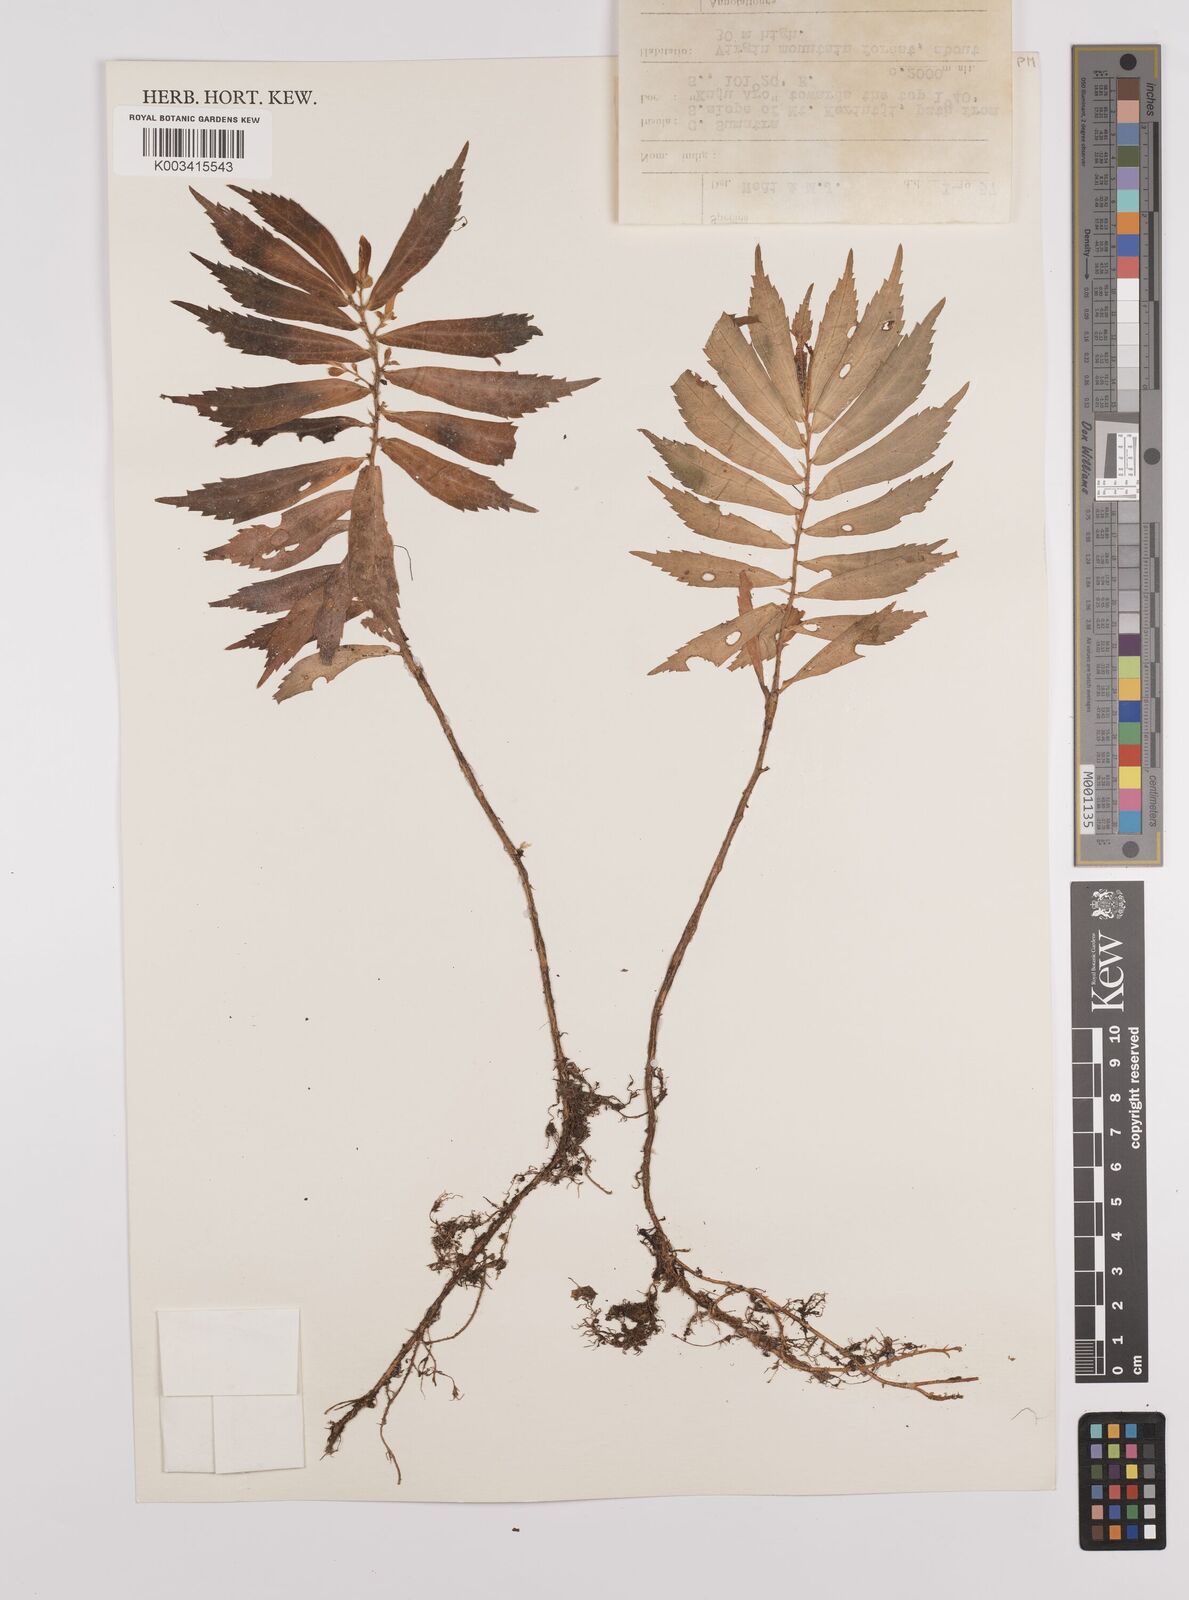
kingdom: Plantae
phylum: Tracheophyta
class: Magnoliopsida
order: Rosales
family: Urticaceae
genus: Elatostema
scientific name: Elatostema
